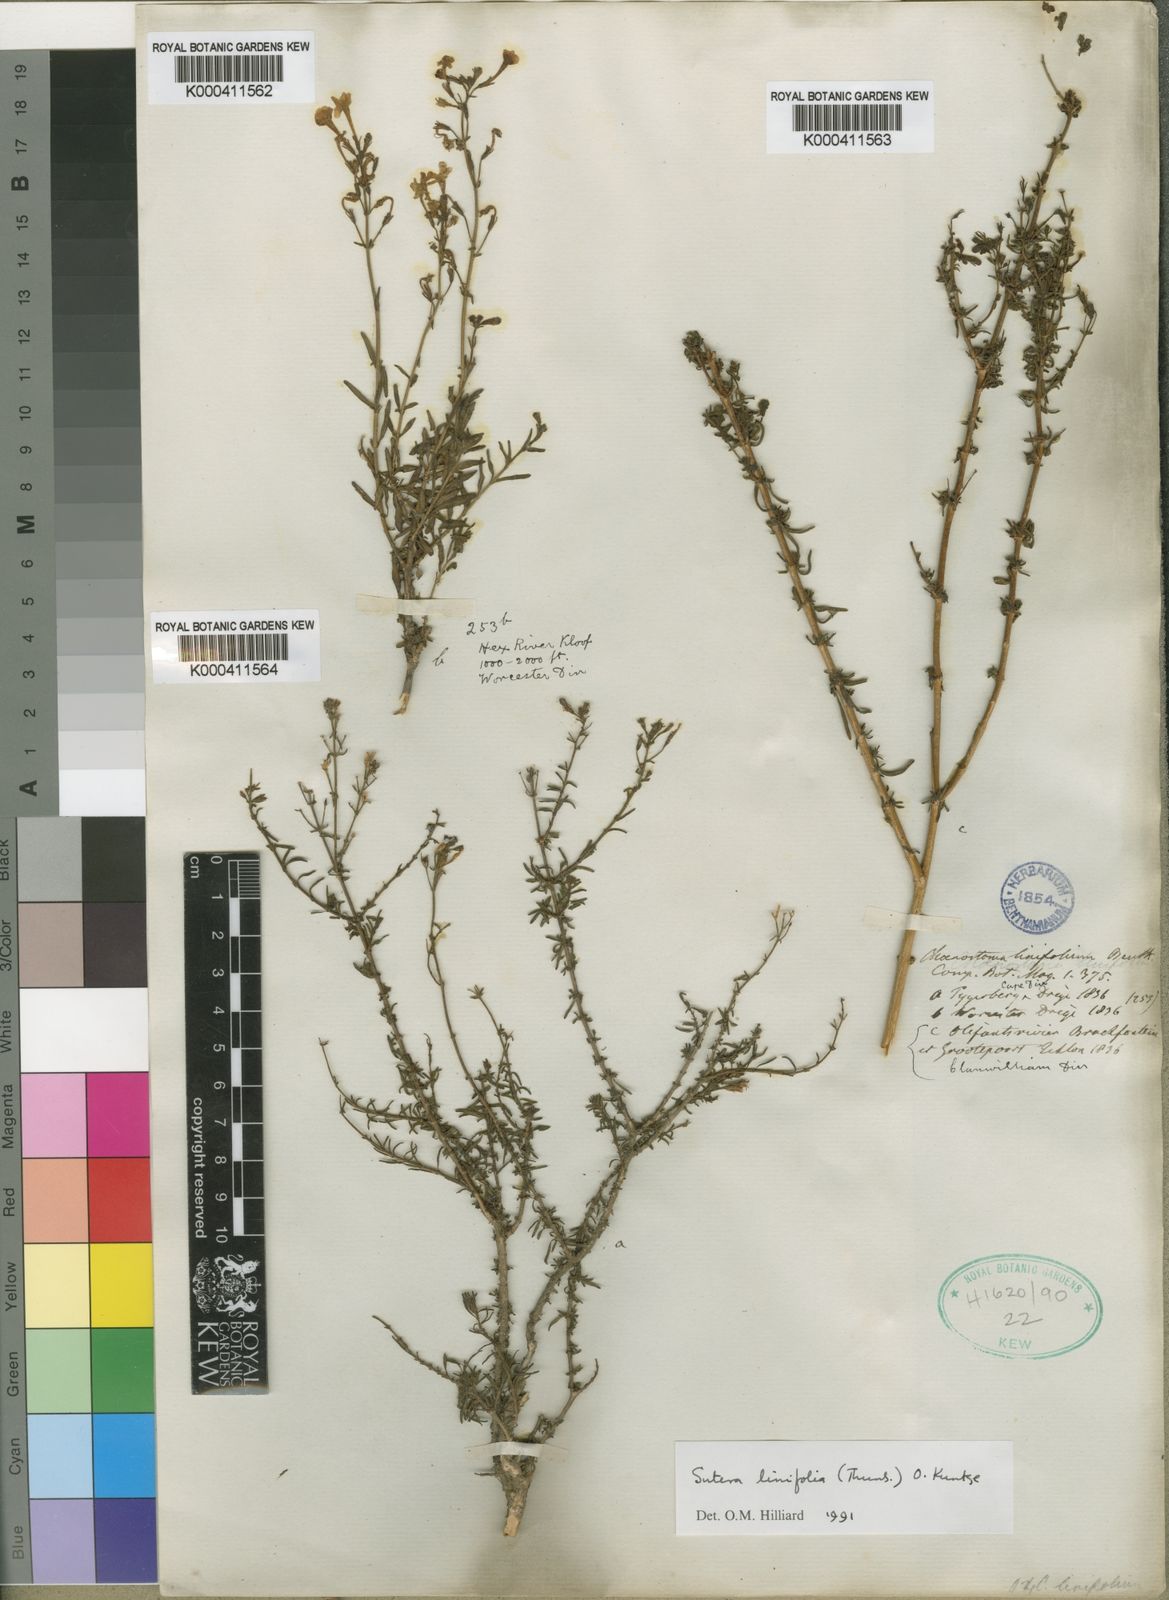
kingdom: Plantae
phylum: Tracheophyta
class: Magnoliopsida
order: Lamiales
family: Scrophulariaceae
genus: Sutera
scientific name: Sutera
